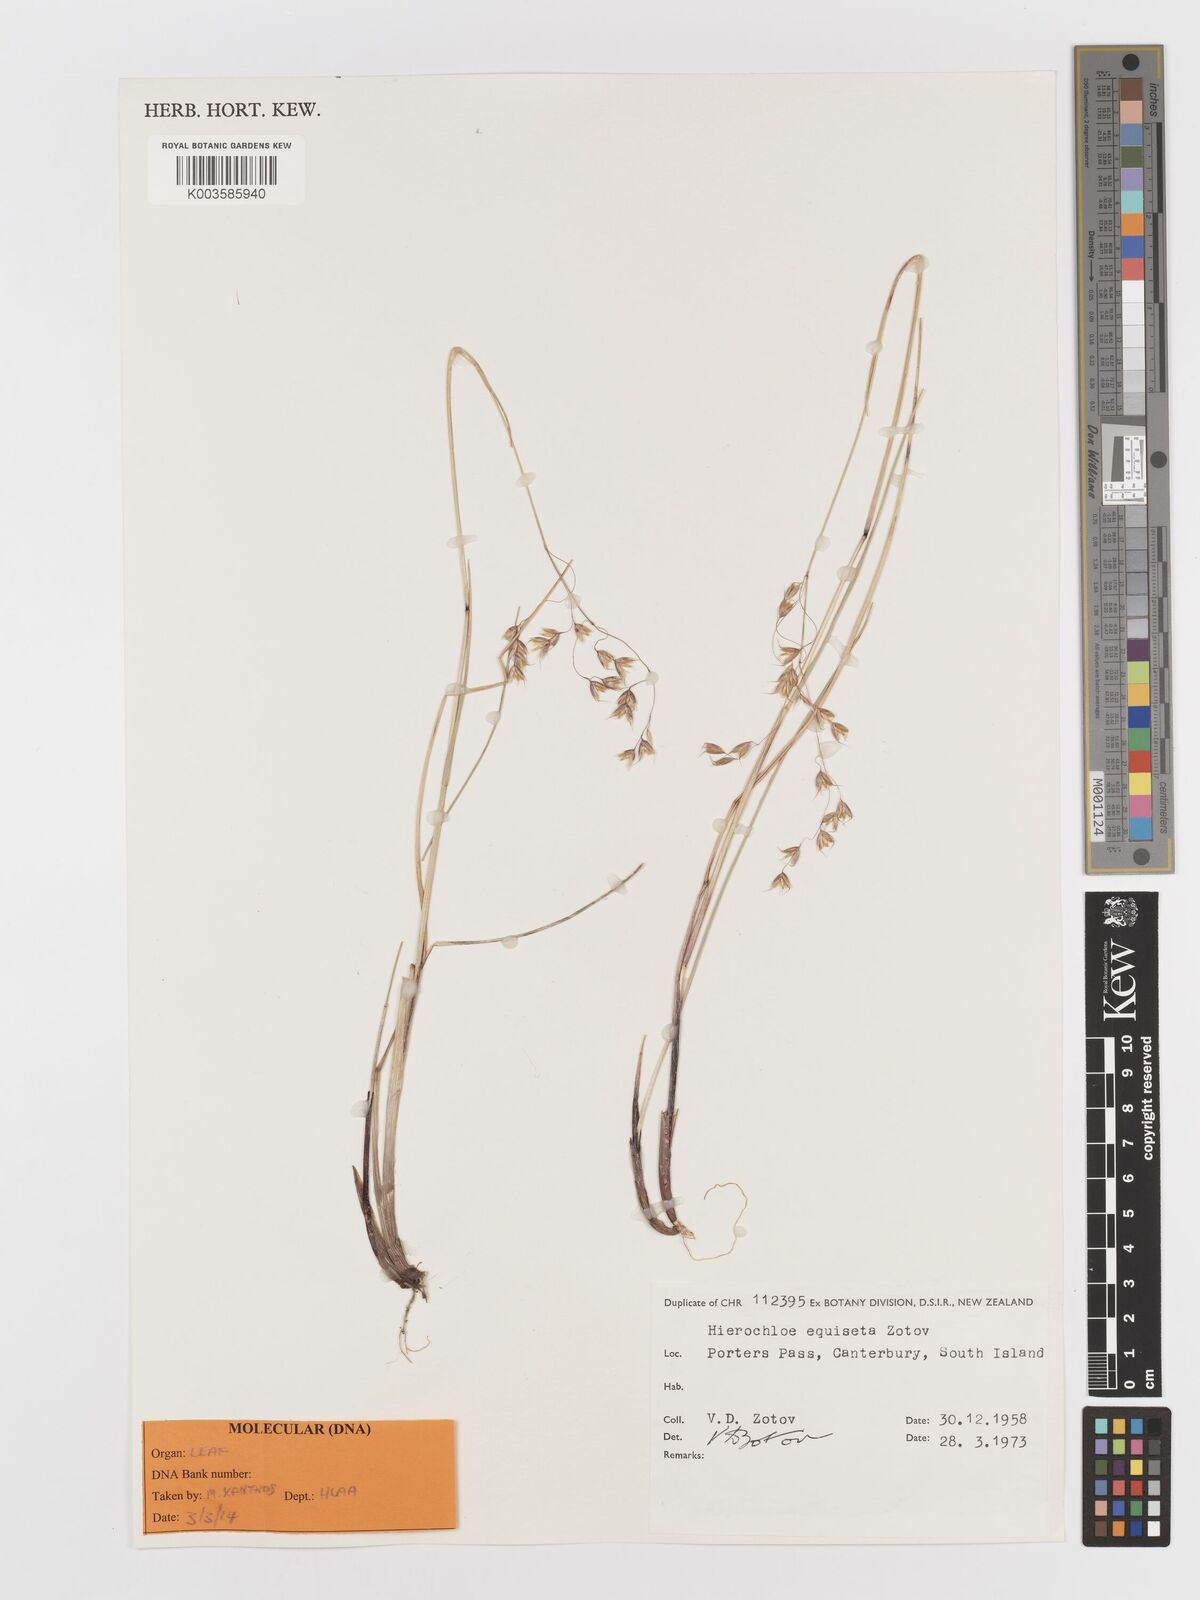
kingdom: Plantae
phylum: Tracheophyta
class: Liliopsida
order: Poales
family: Poaceae
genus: Anthoxanthum
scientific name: Anthoxanthum equisetum
